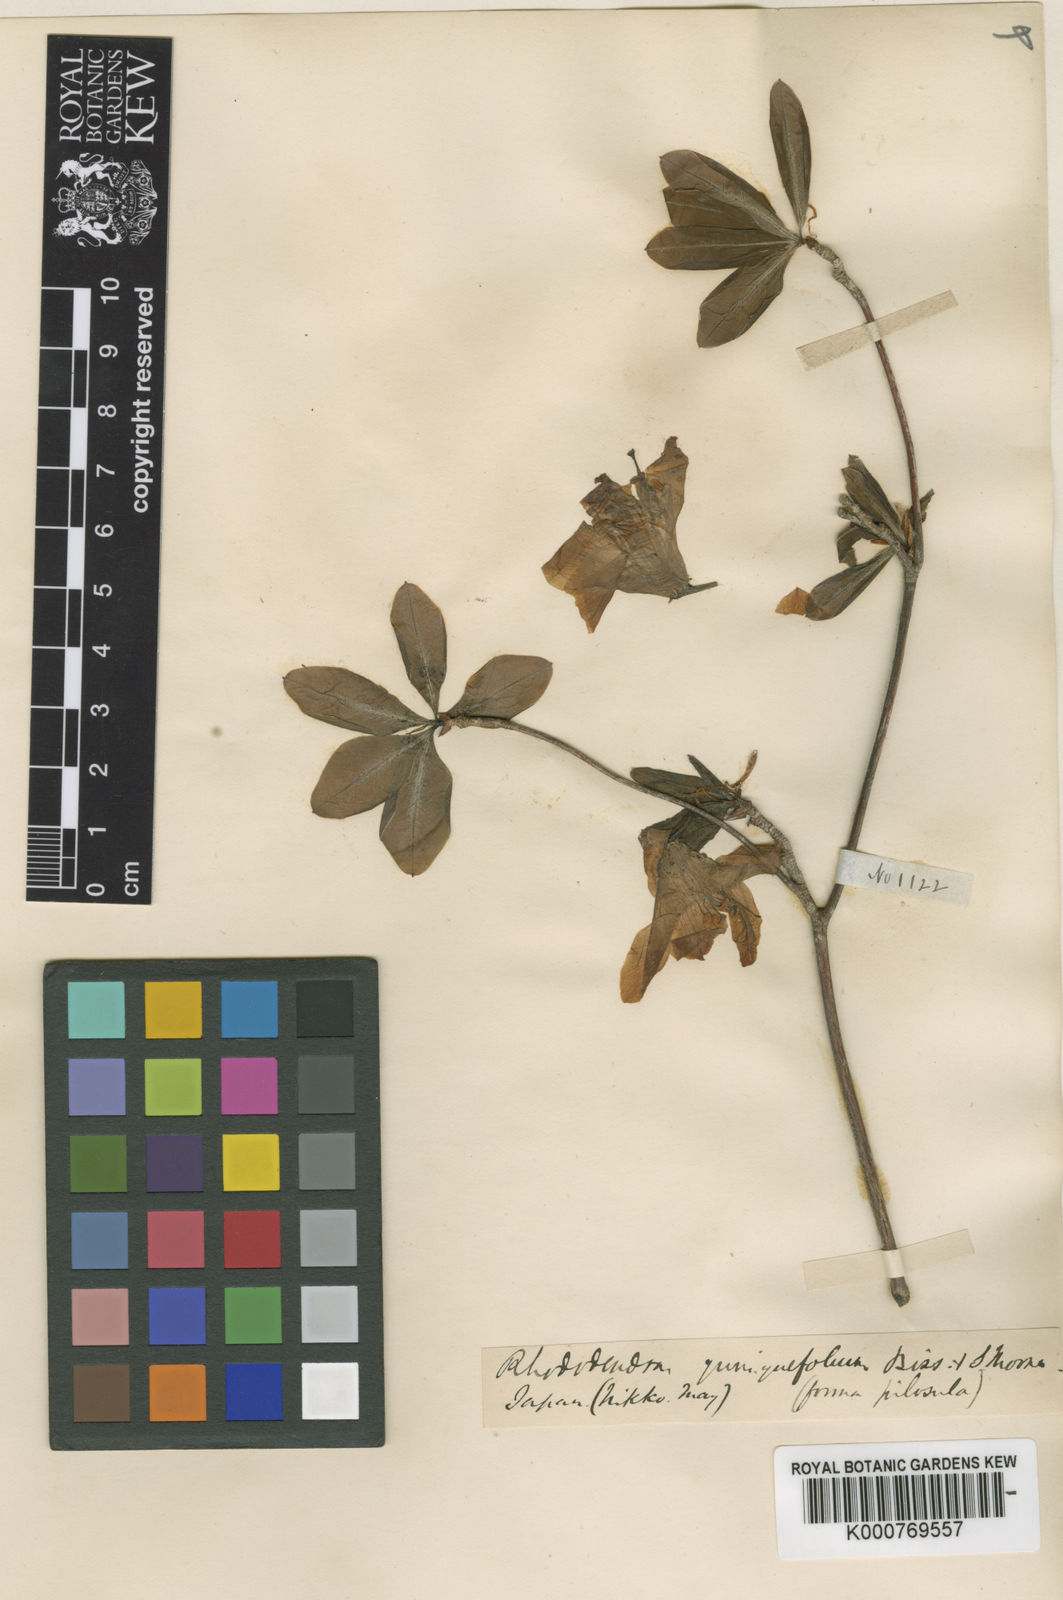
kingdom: Plantae
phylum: Tracheophyta
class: Magnoliopsida
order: Ericales
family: Ericaceae
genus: Rhododendron
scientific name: Rhododendron quinquefolium
